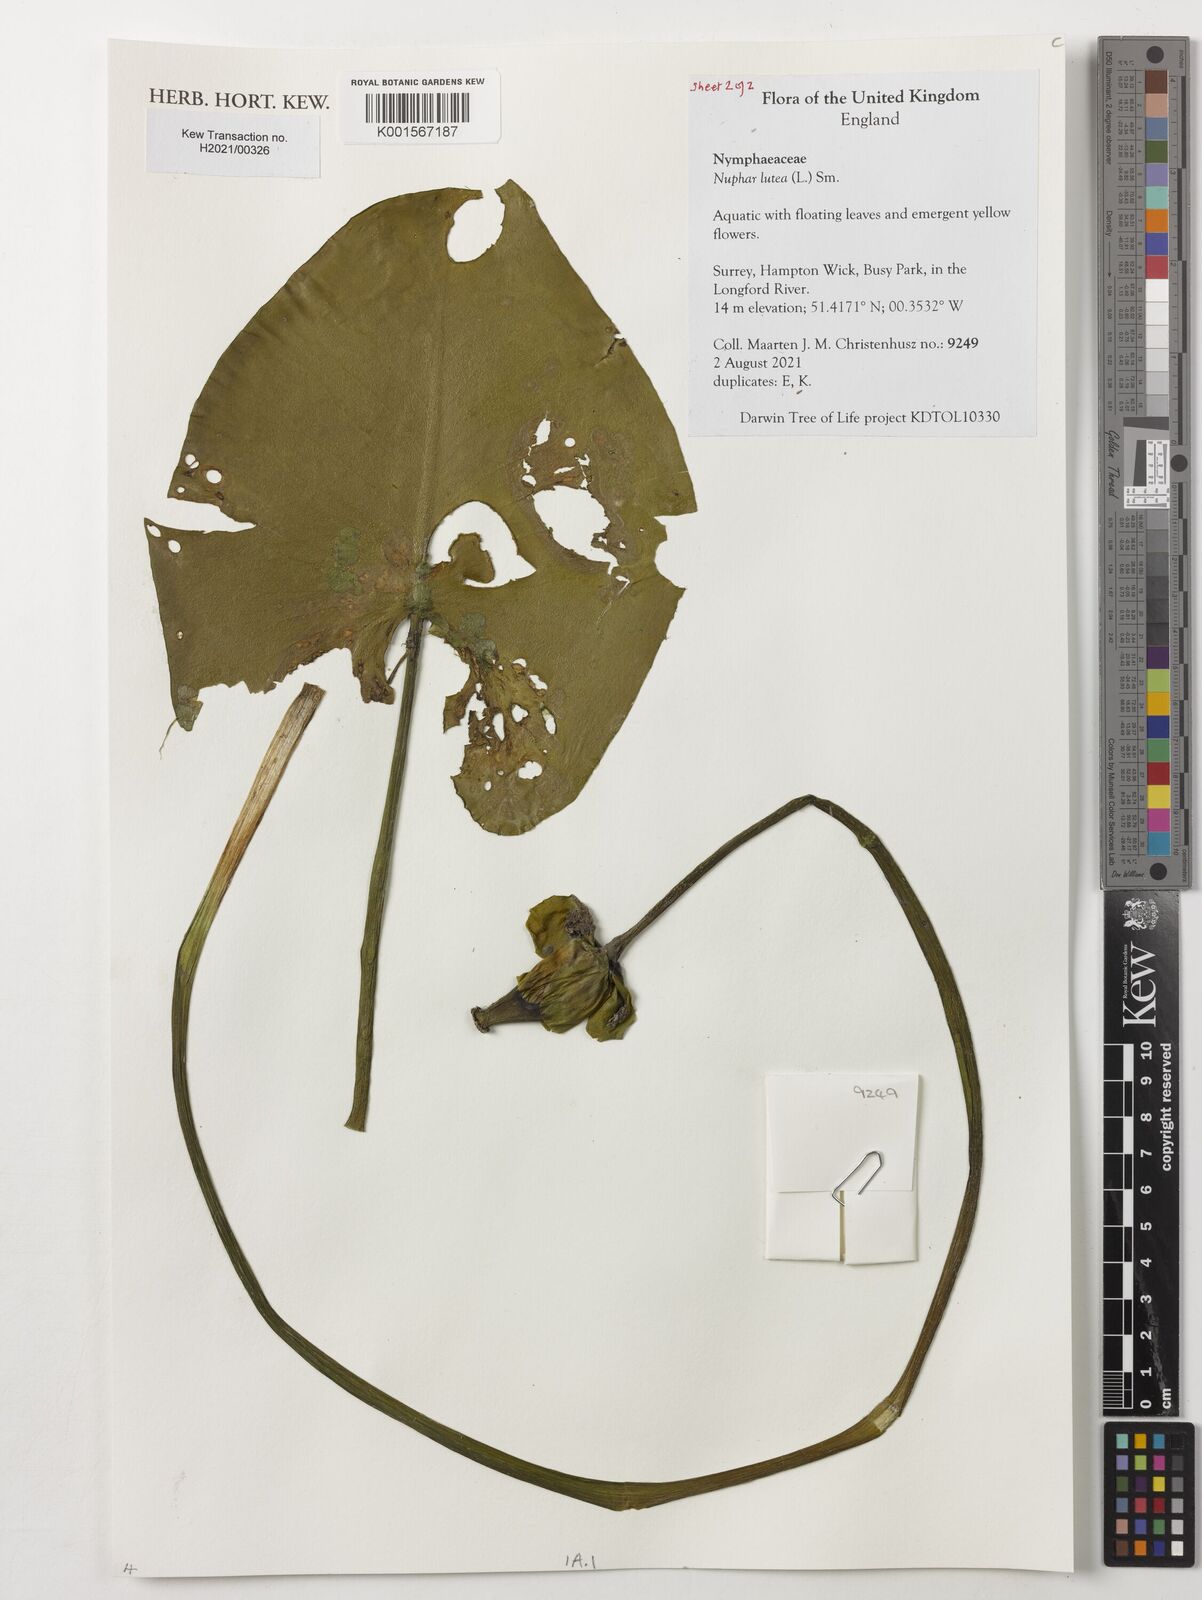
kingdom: Plantae
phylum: Tracheophyta
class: Magnoliopsida
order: Nymphaeales
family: Nymphaeaceae
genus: Nuphar
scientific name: Nuphar lutea
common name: Yellow water-lily
